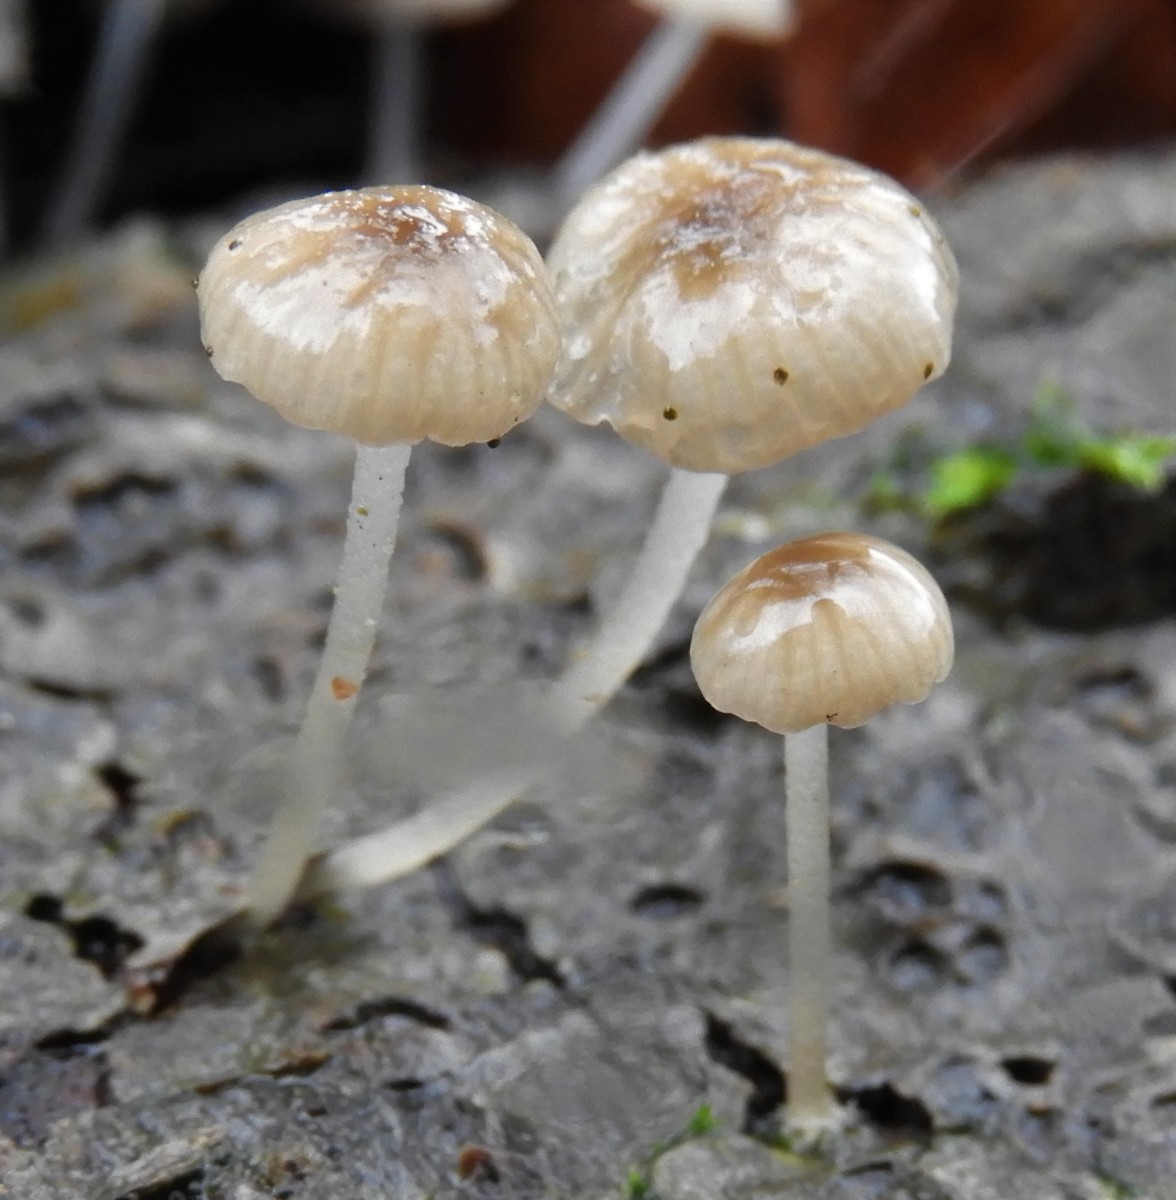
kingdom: Fungi
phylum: Basidiomycota
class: Agaricomycetes
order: Agaricales
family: Porotheleaceae
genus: Phloeomana
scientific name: Phloeomana speirea
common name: kvist-huesvamp
